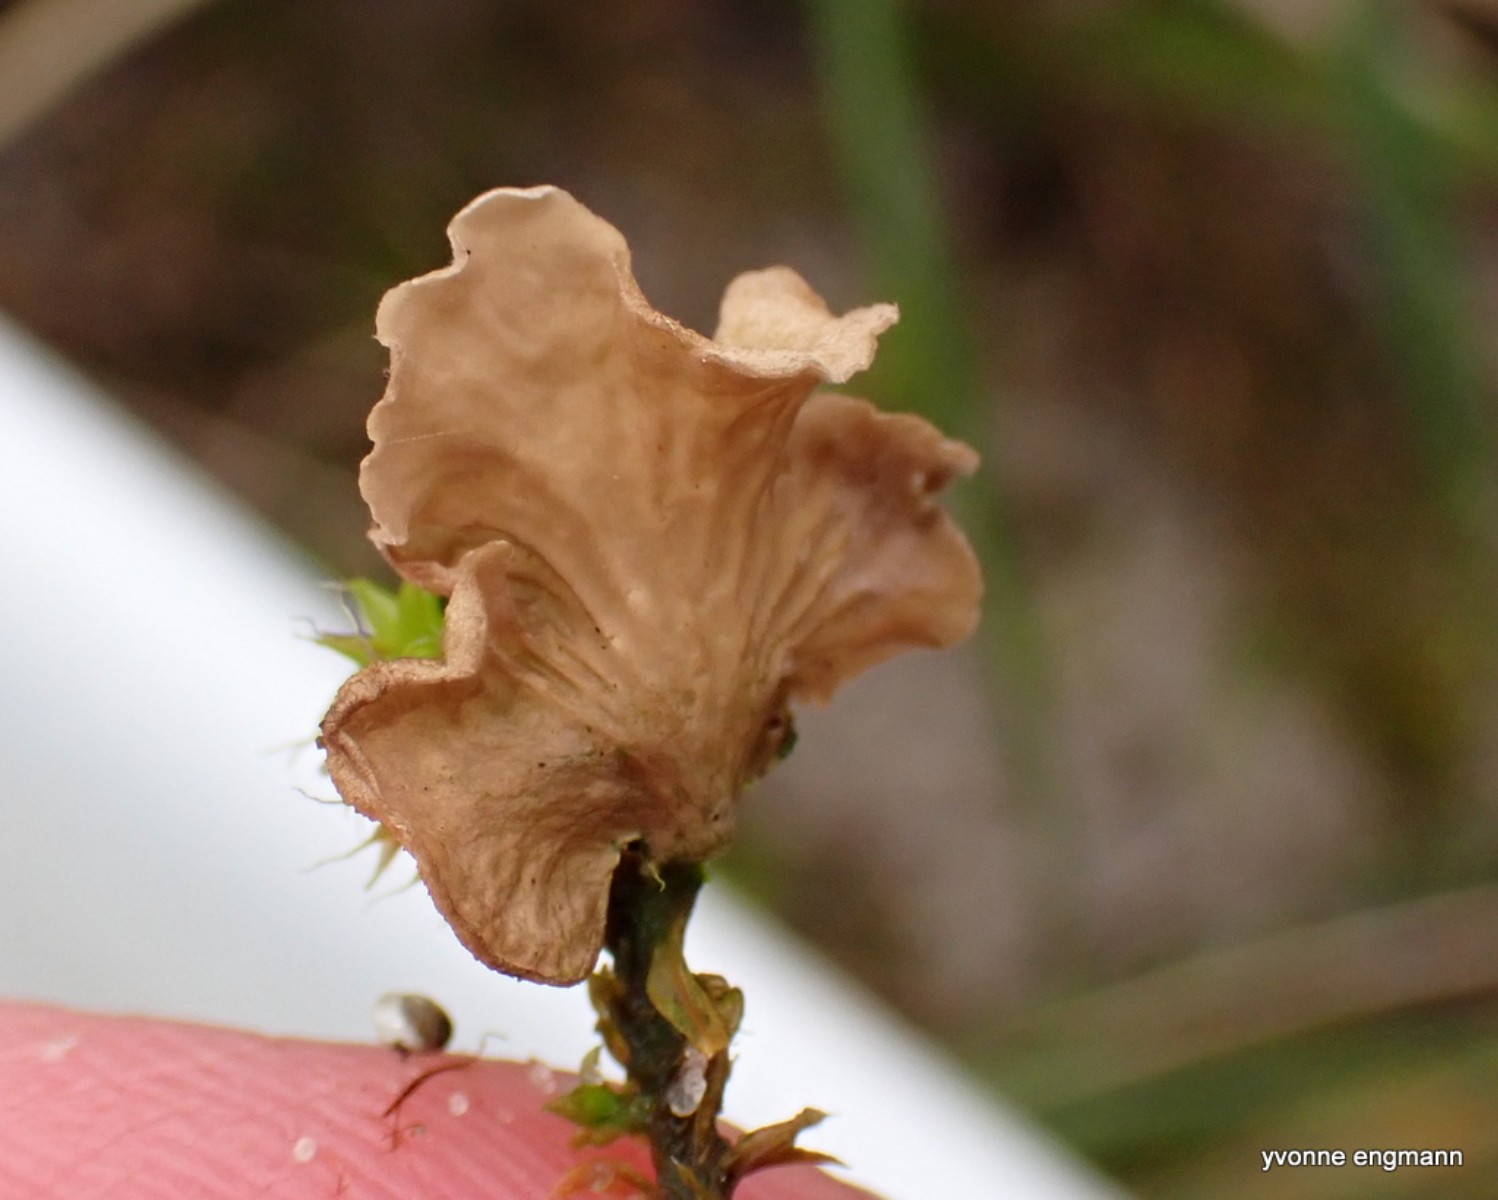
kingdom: Fungi
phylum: Basidiomycota
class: Agaricomycetes
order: Agaricales
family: Hygrophoraceae
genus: Arrhenia
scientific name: Arrhenia spathulata
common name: skæv fontænehat
